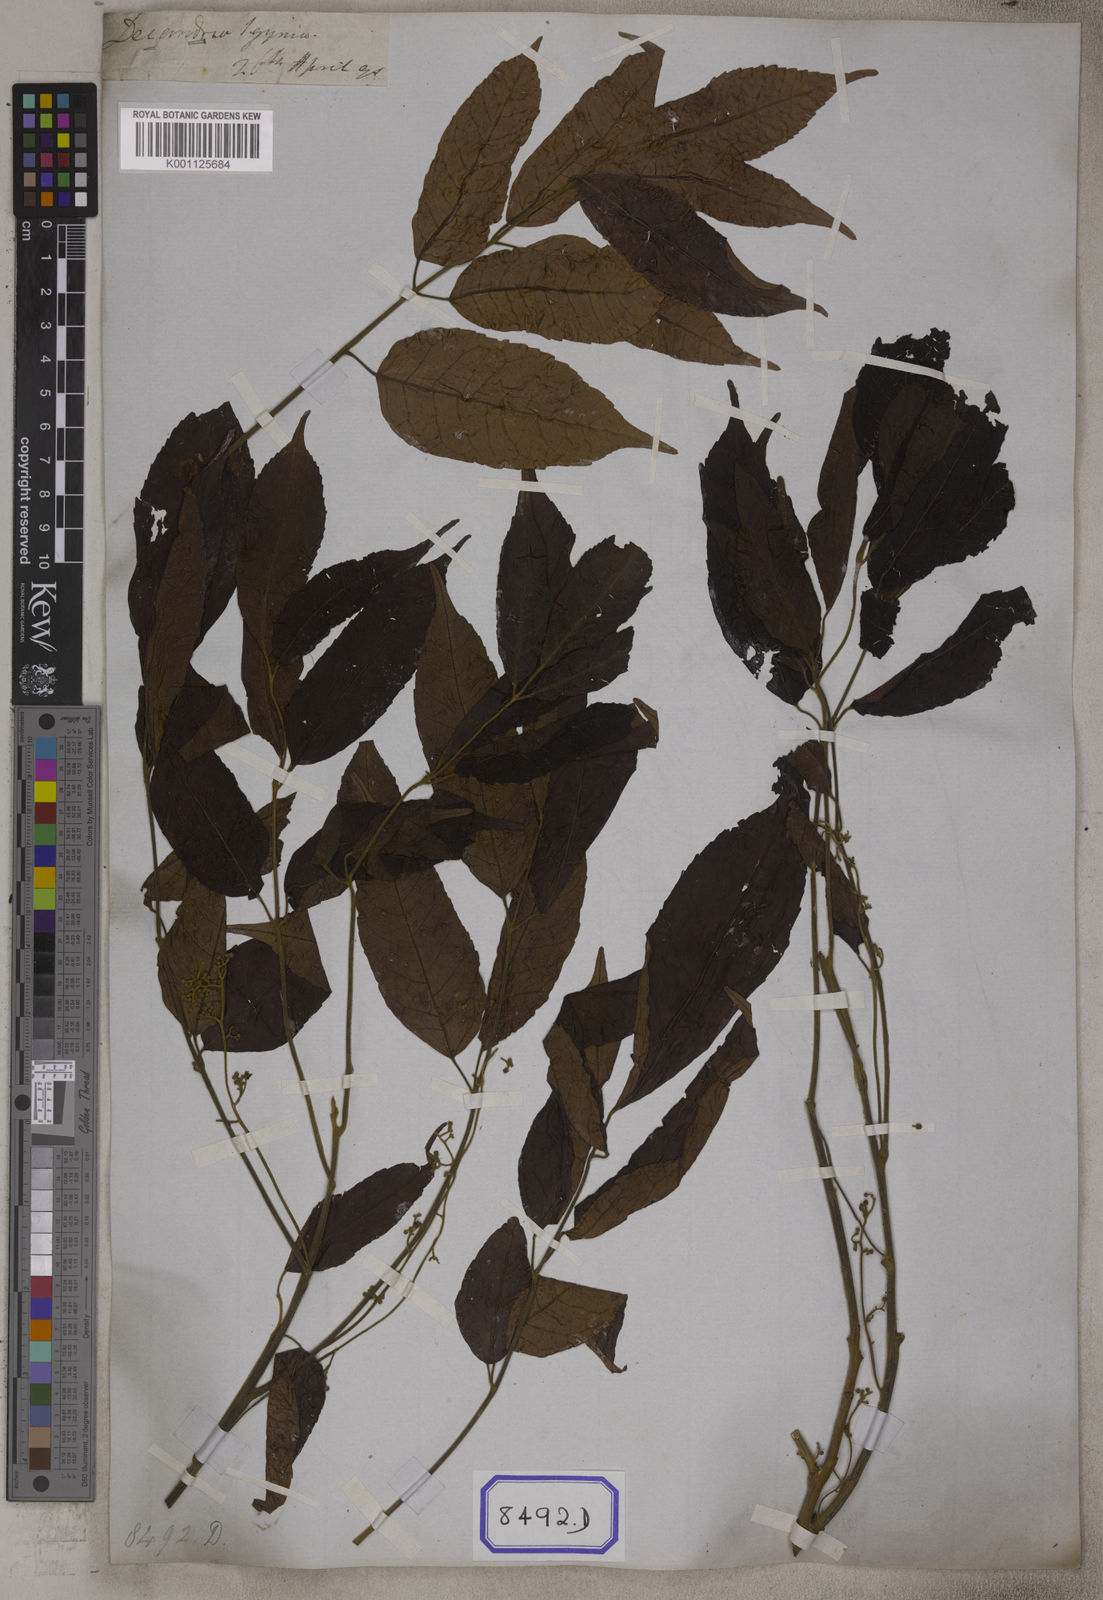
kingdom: Plantae
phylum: Tracheophyta
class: Magnoliopsida
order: Sapindales
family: Burseraceae
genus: Protium
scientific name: Protium serratum
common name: Murtenga
